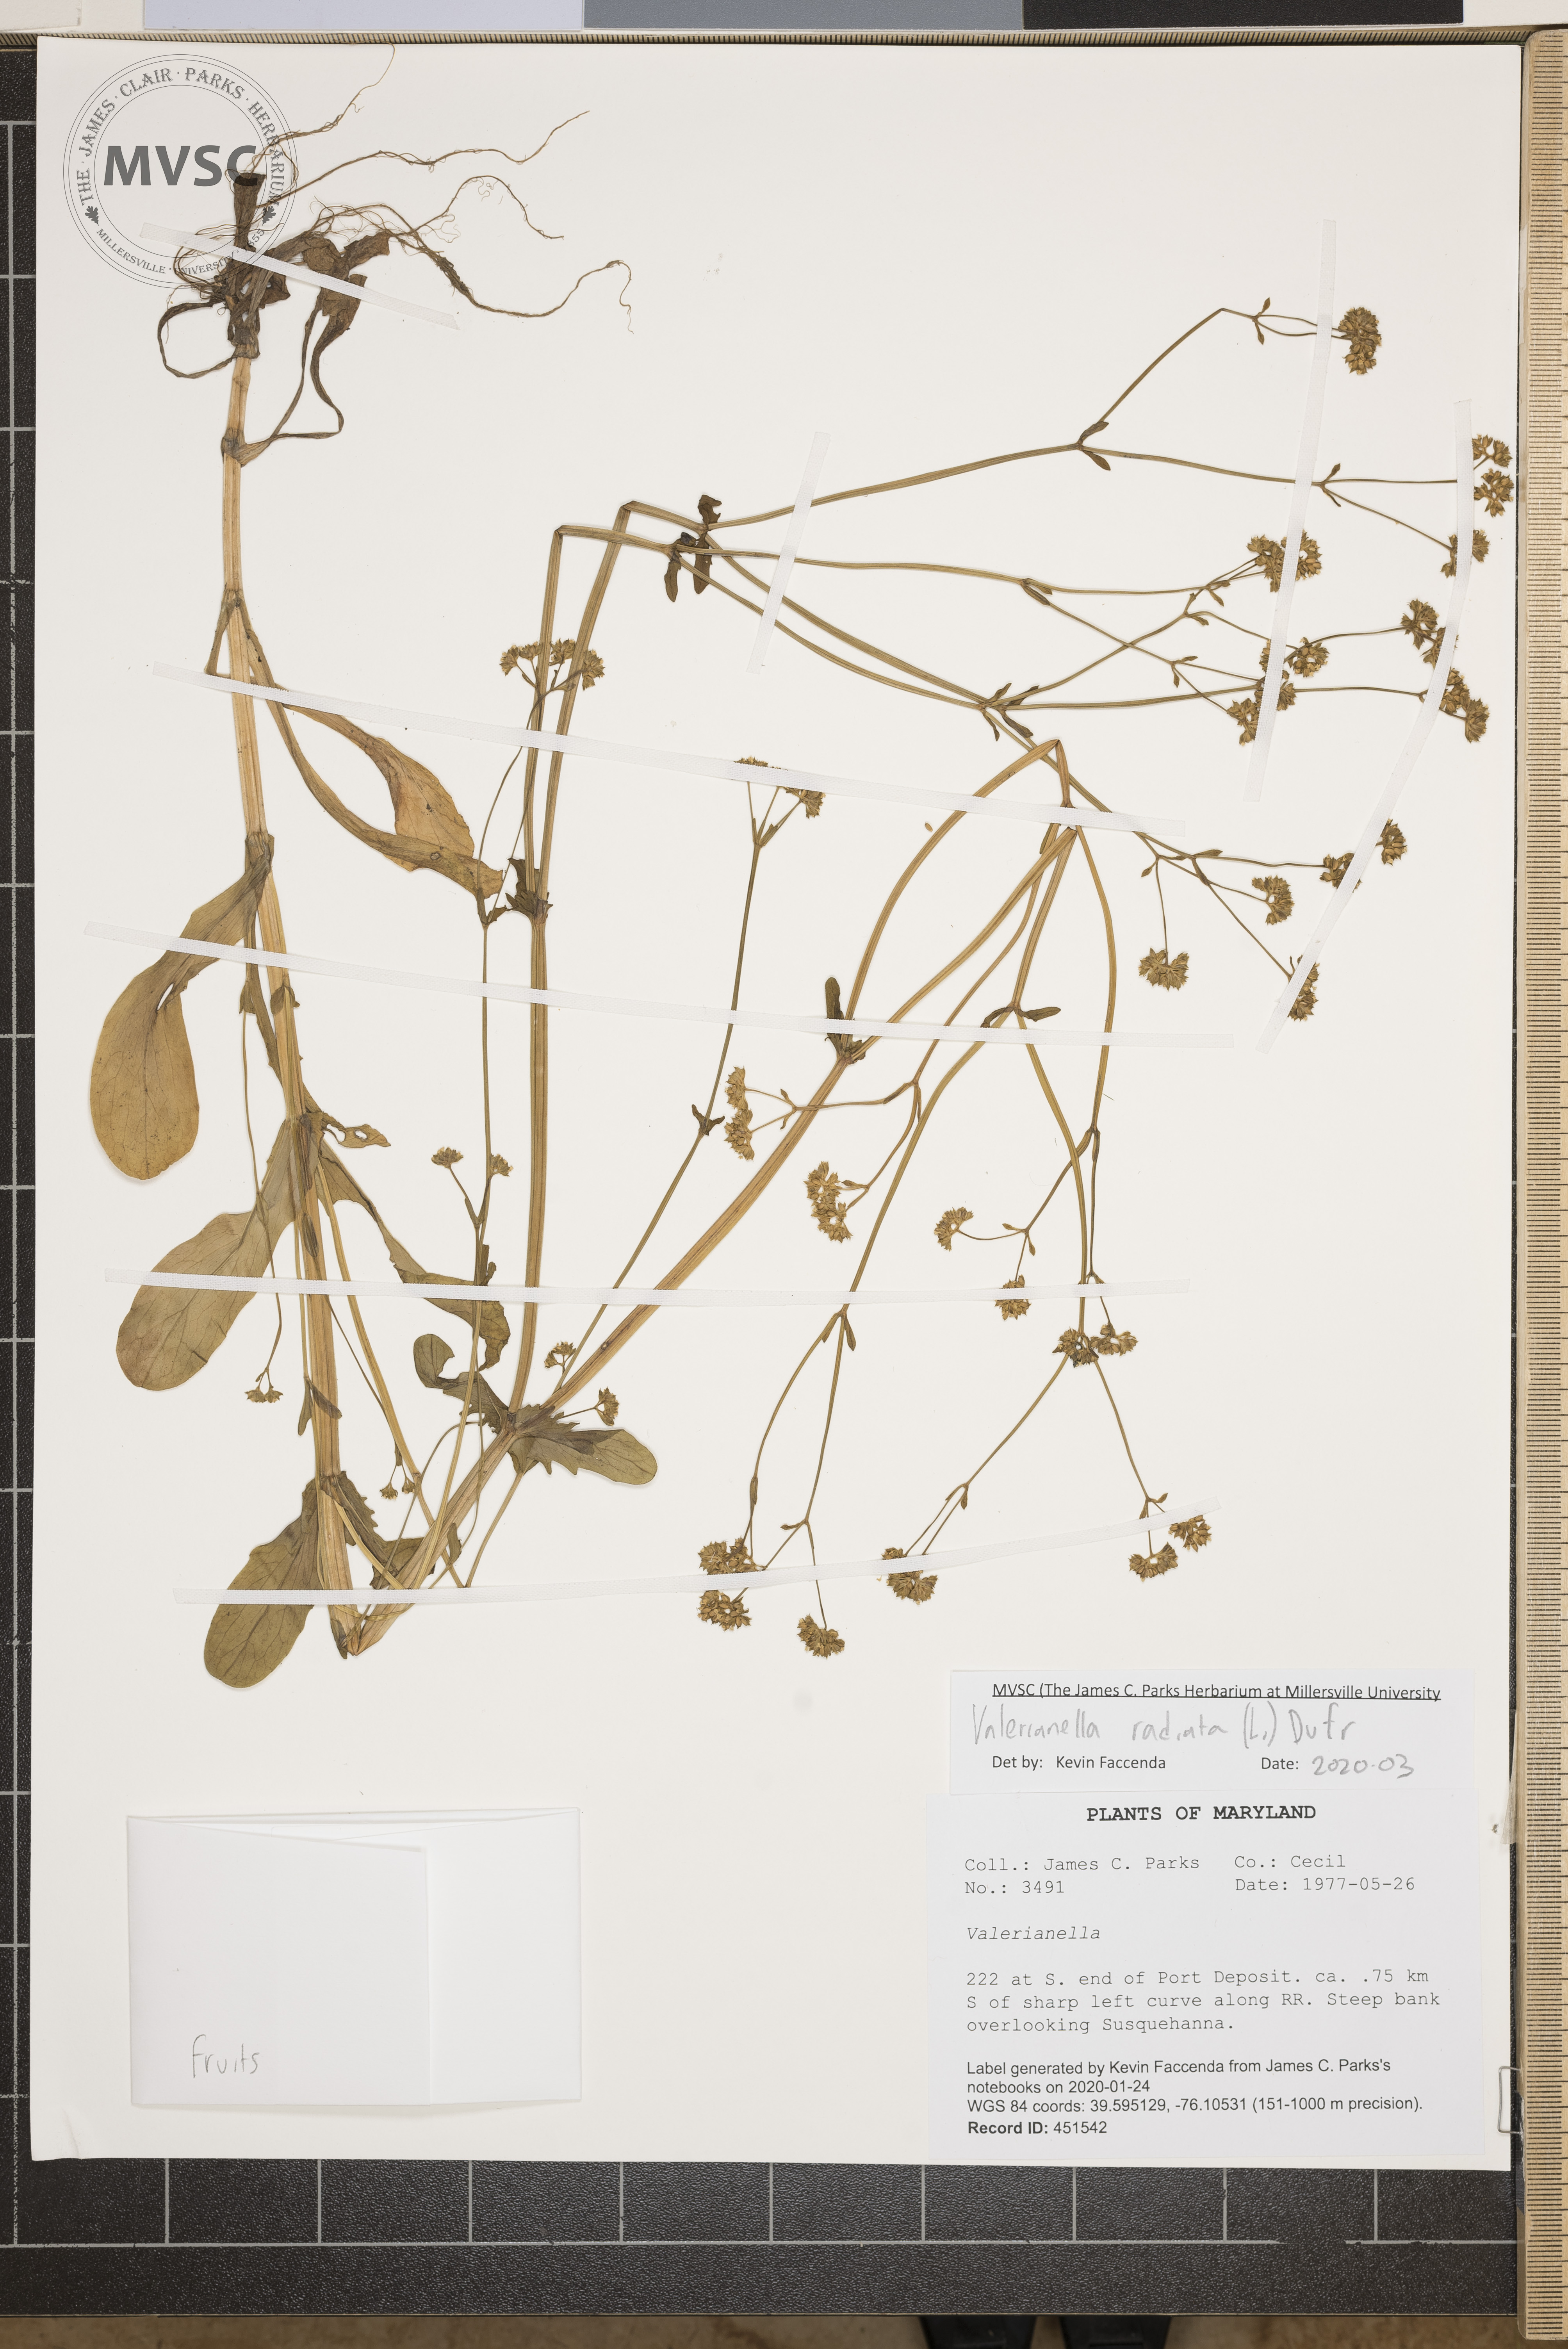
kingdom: Plantae
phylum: Tracheophyta
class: Magnoliopsida
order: Dipsacales
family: Caprifoliaceae
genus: Valerianella
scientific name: Valerianella radiata
